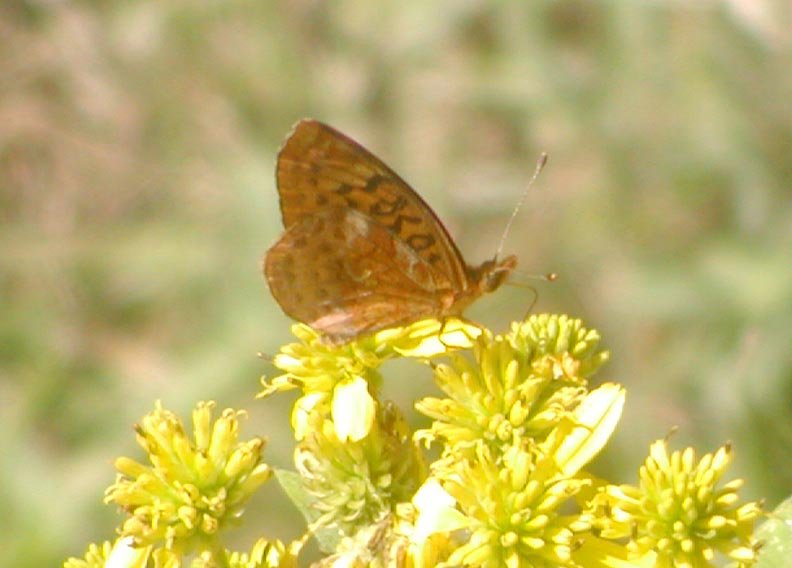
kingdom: Animalia
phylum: Arthropoda
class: Insecta
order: Lepidoptera
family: Nymphalidae
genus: Clossiana
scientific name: Clossiana toddi
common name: Meadow Fritillary
